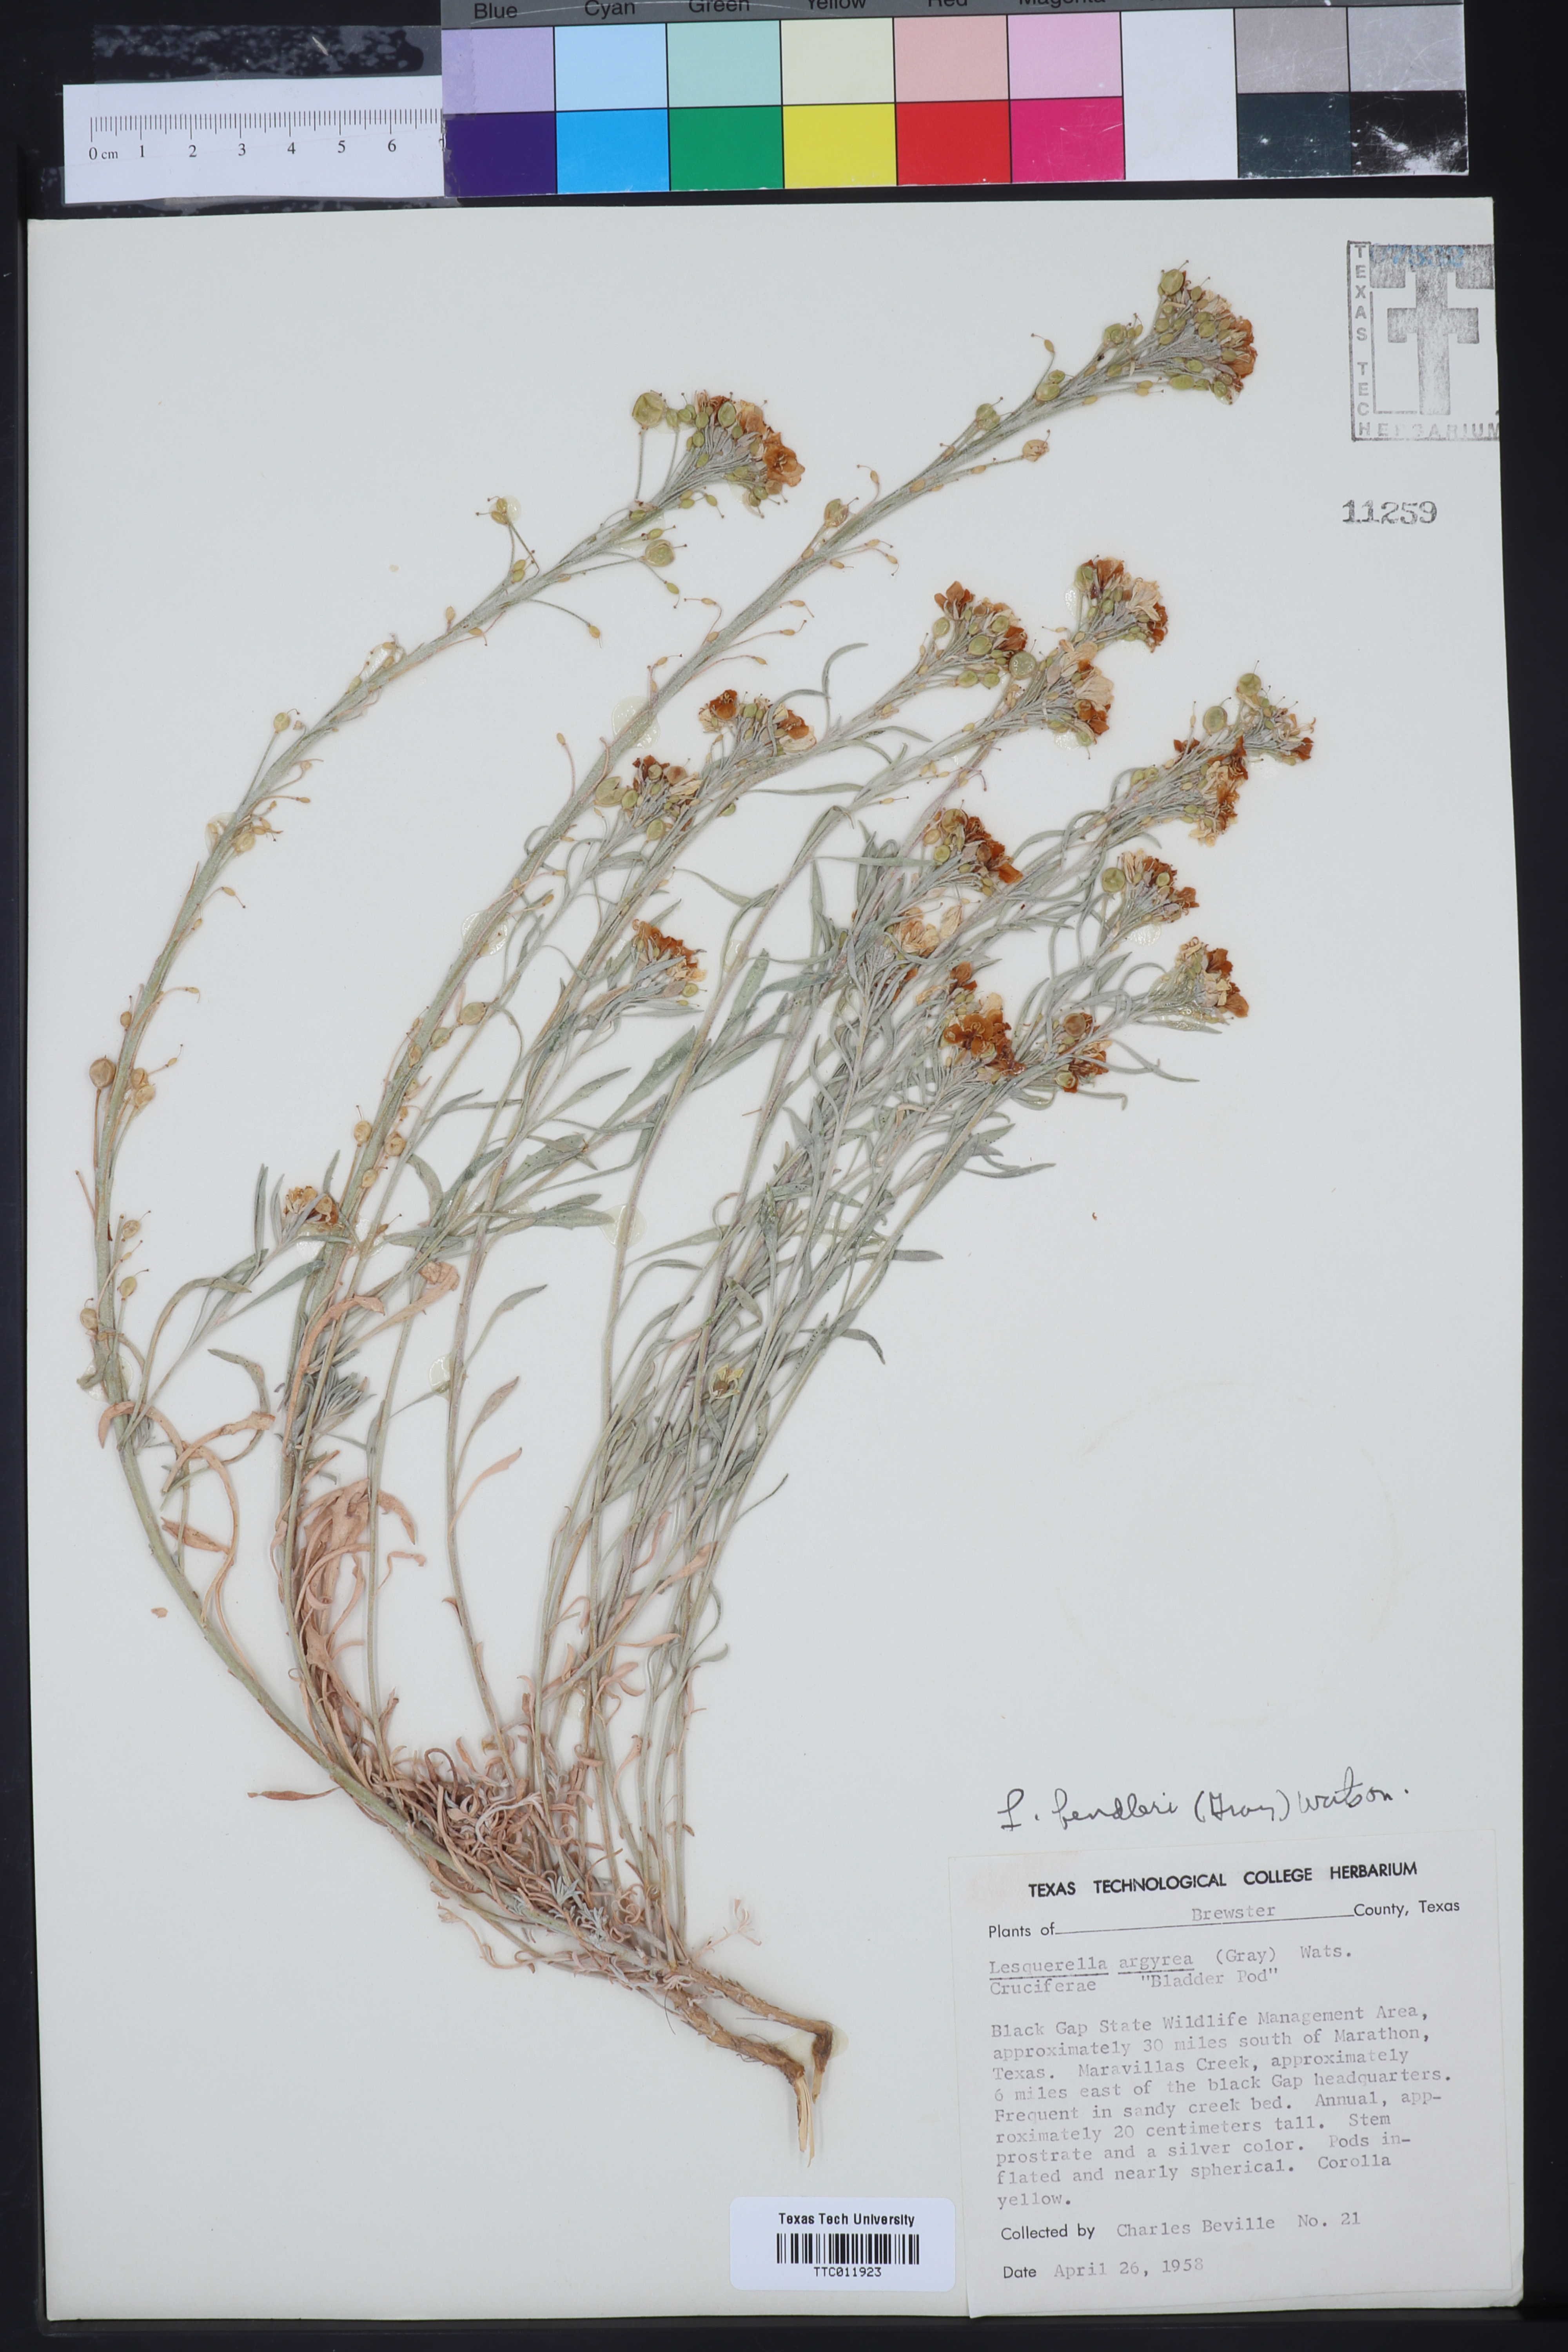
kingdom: Plantae
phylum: Tracheophyta
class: Magnoliopsida
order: Brassicales
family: Brassicaceae
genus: Physaria
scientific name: Physaria fendleri
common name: Fendler's bladderpod
